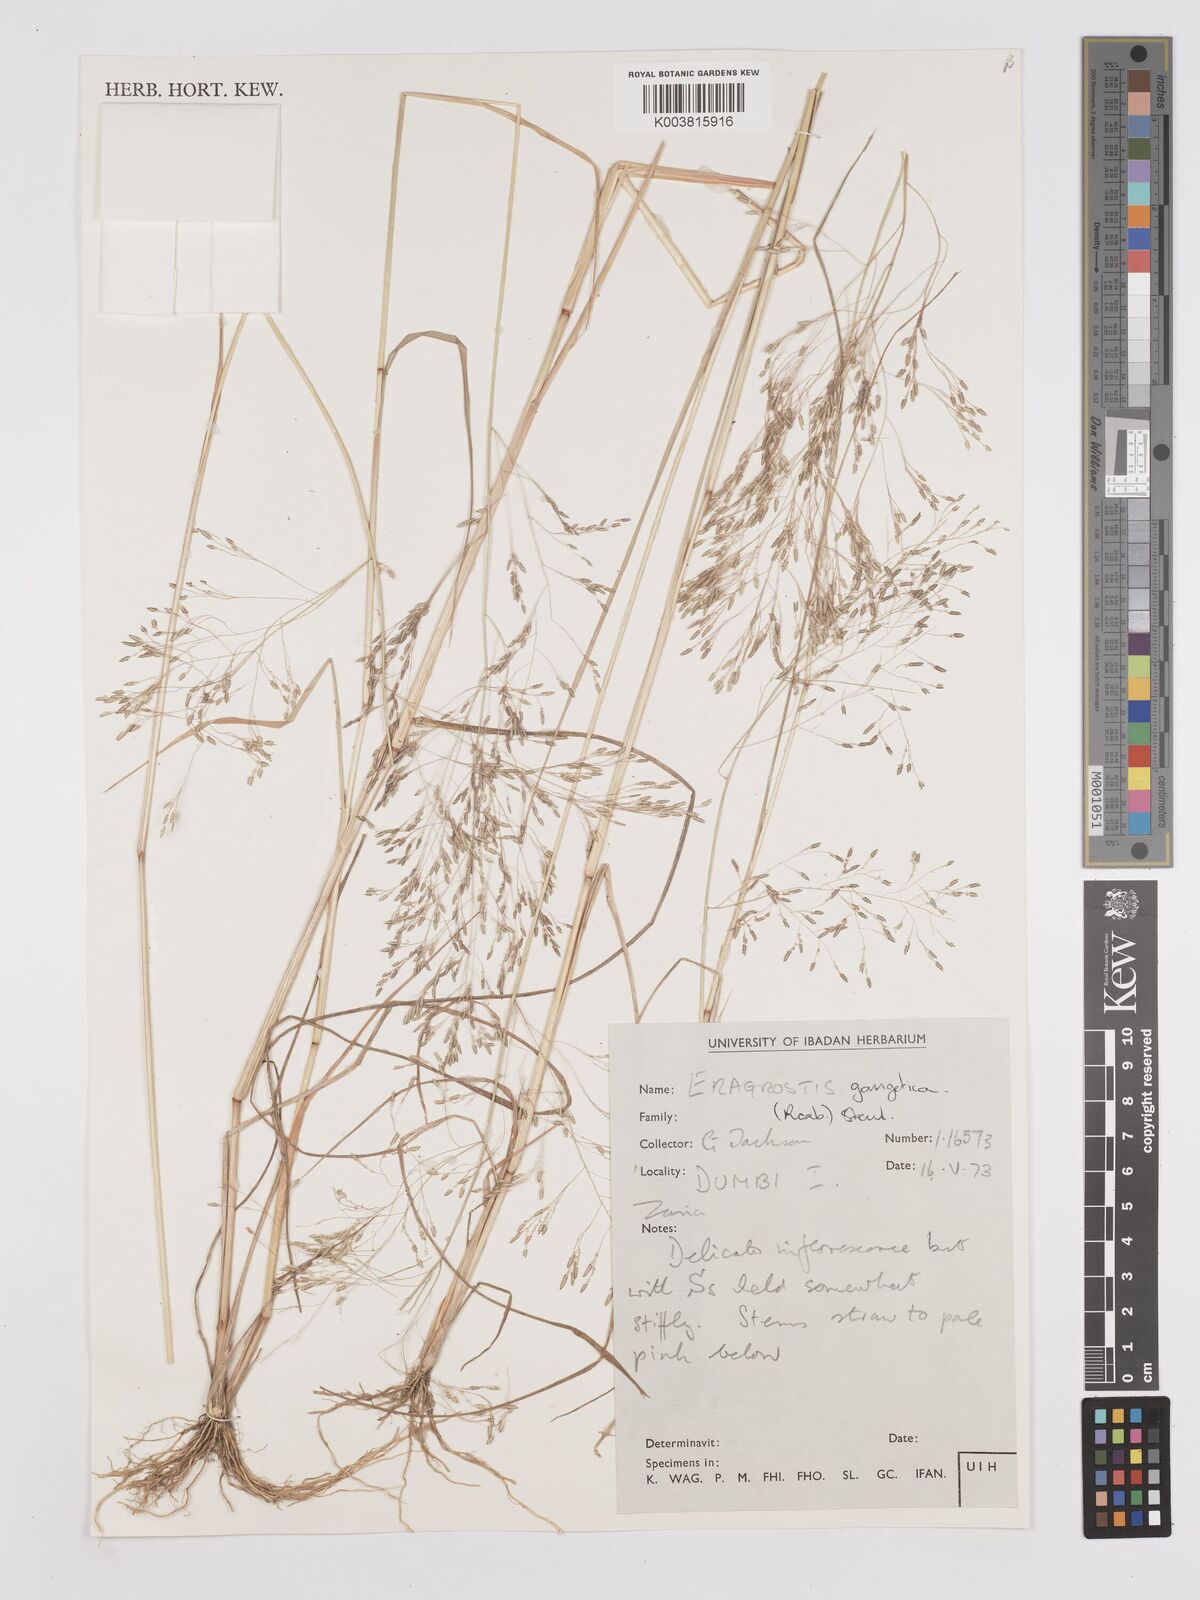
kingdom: Plantae
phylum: Tracheophyta
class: Liliopsida
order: Poales
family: Poaceae
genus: Eragrostis
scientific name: Eragrostis gangetica
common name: Slimflower lovegrass
